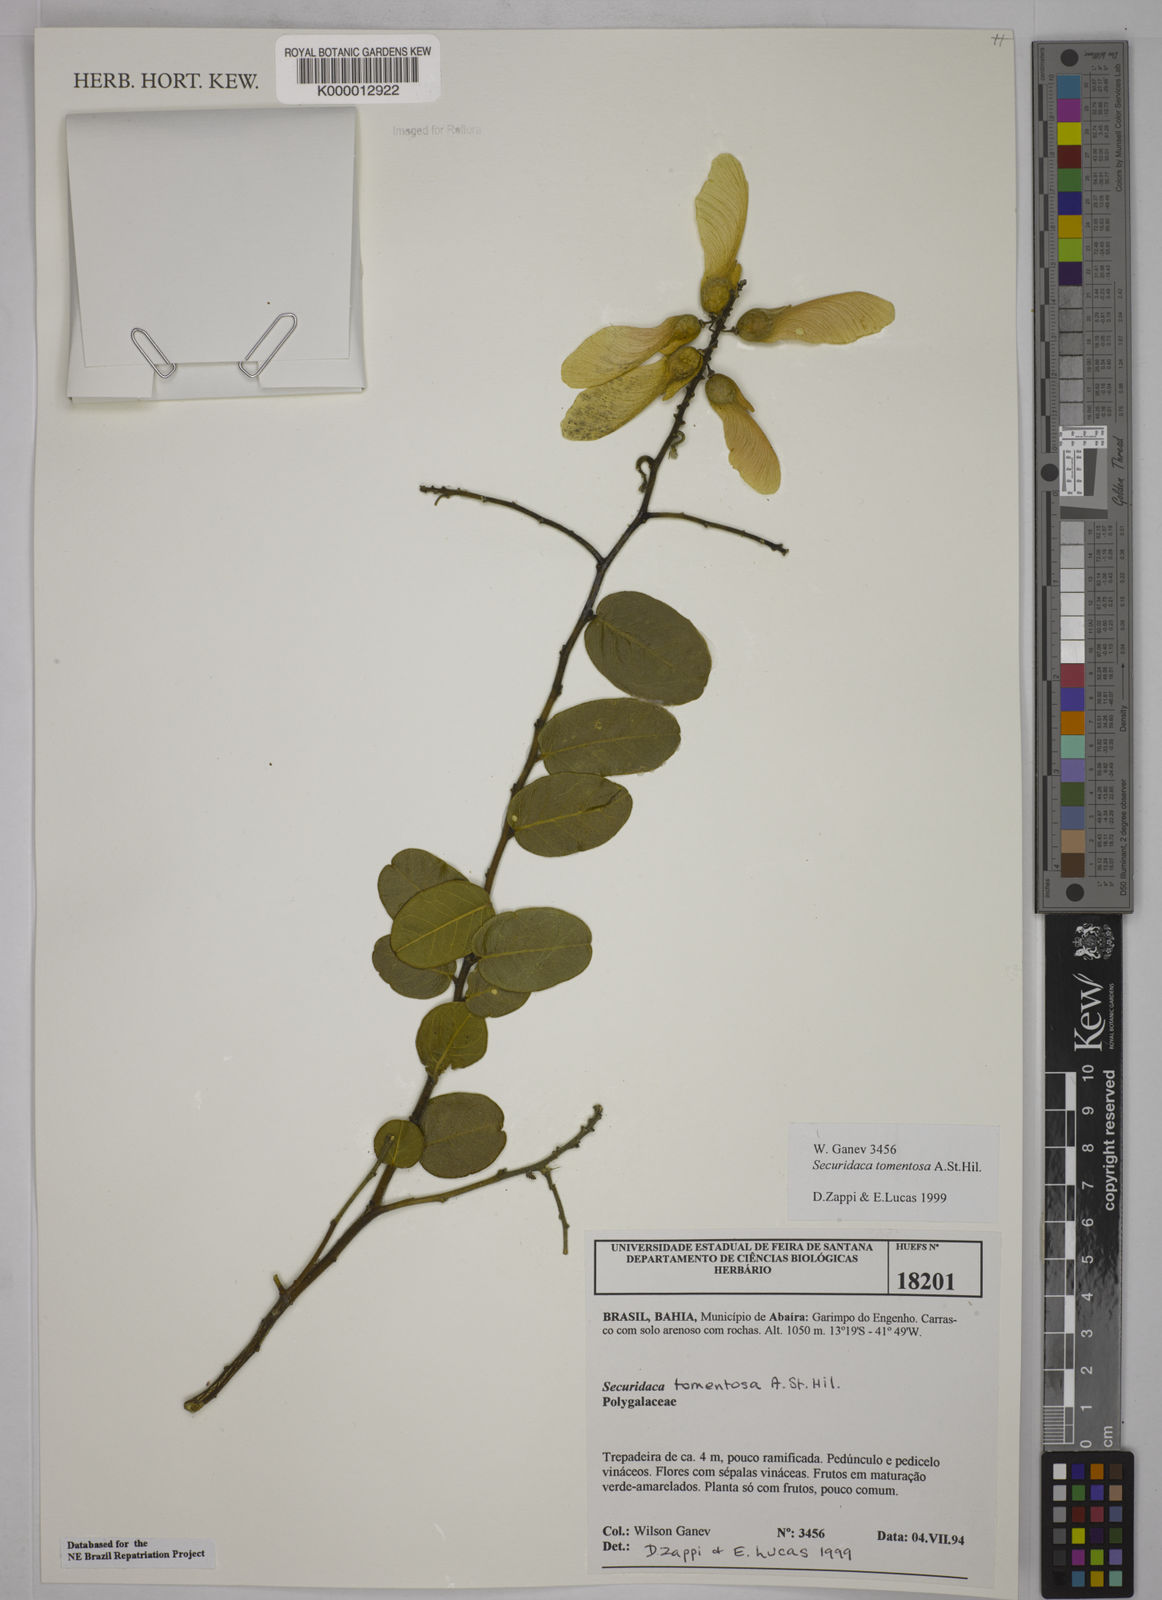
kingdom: Plantae
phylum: Tracheophyta
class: Magnoliopsida
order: Fabales
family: Polygalaceae
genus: Securidaca
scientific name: Securidaca tomentosa
